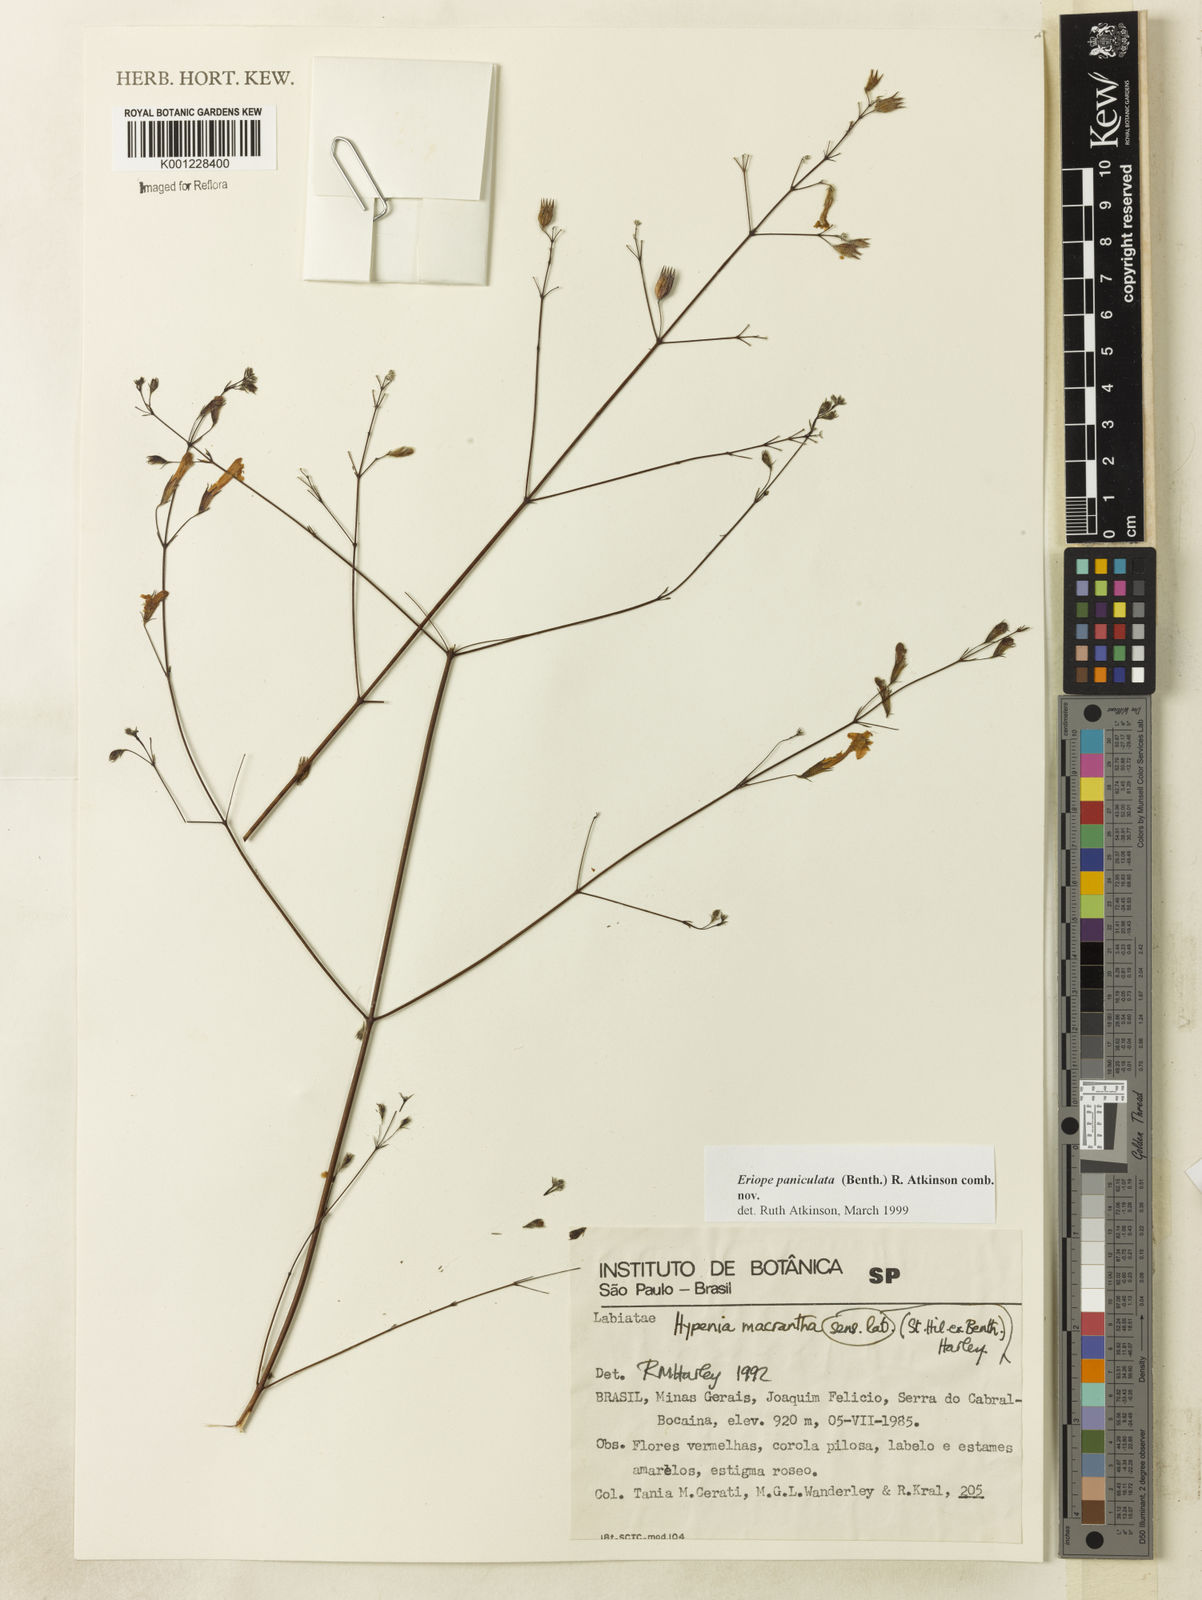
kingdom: Plantae
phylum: Tracheophyta
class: Magnoliopsida
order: Lamiales
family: Lamiaceae
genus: Hypenia
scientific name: Hypenia paniculata
